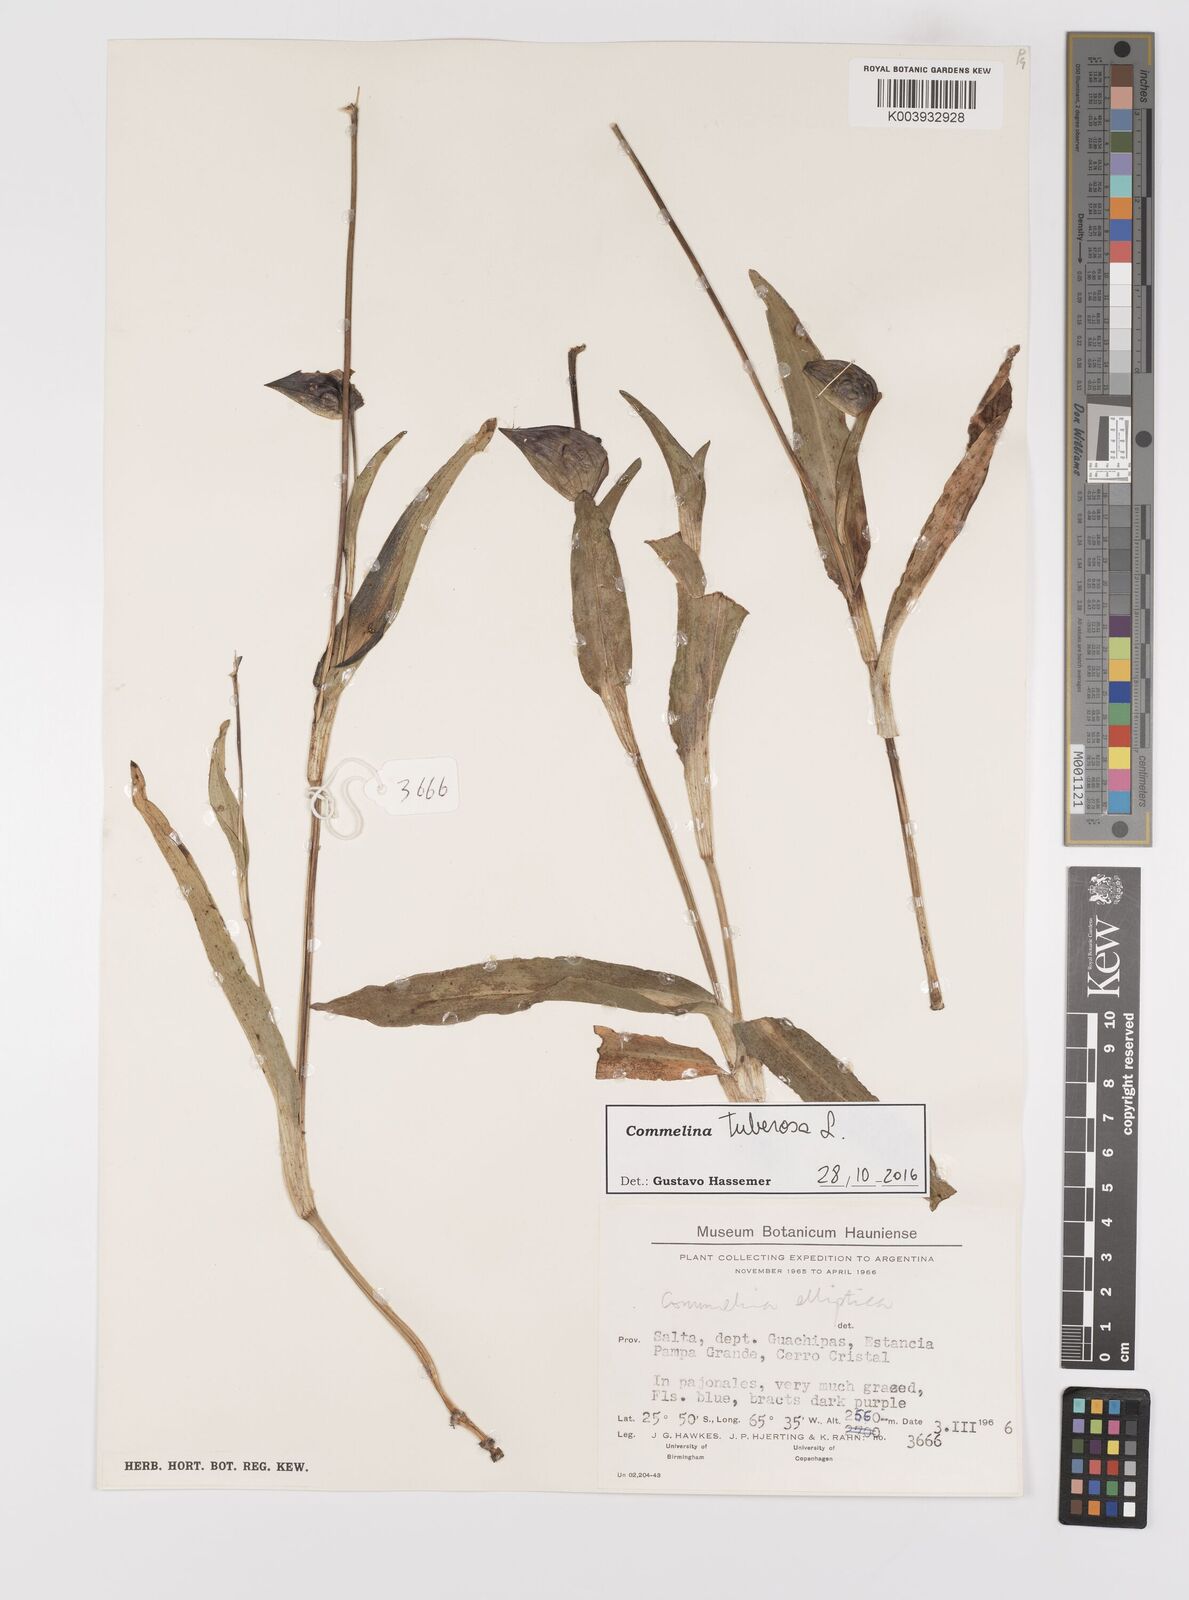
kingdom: Plantae
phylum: Tracheophyta
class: Liliopsida
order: Commelinales
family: Commelinaceae
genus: Commelina
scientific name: Commelina tuberosa
